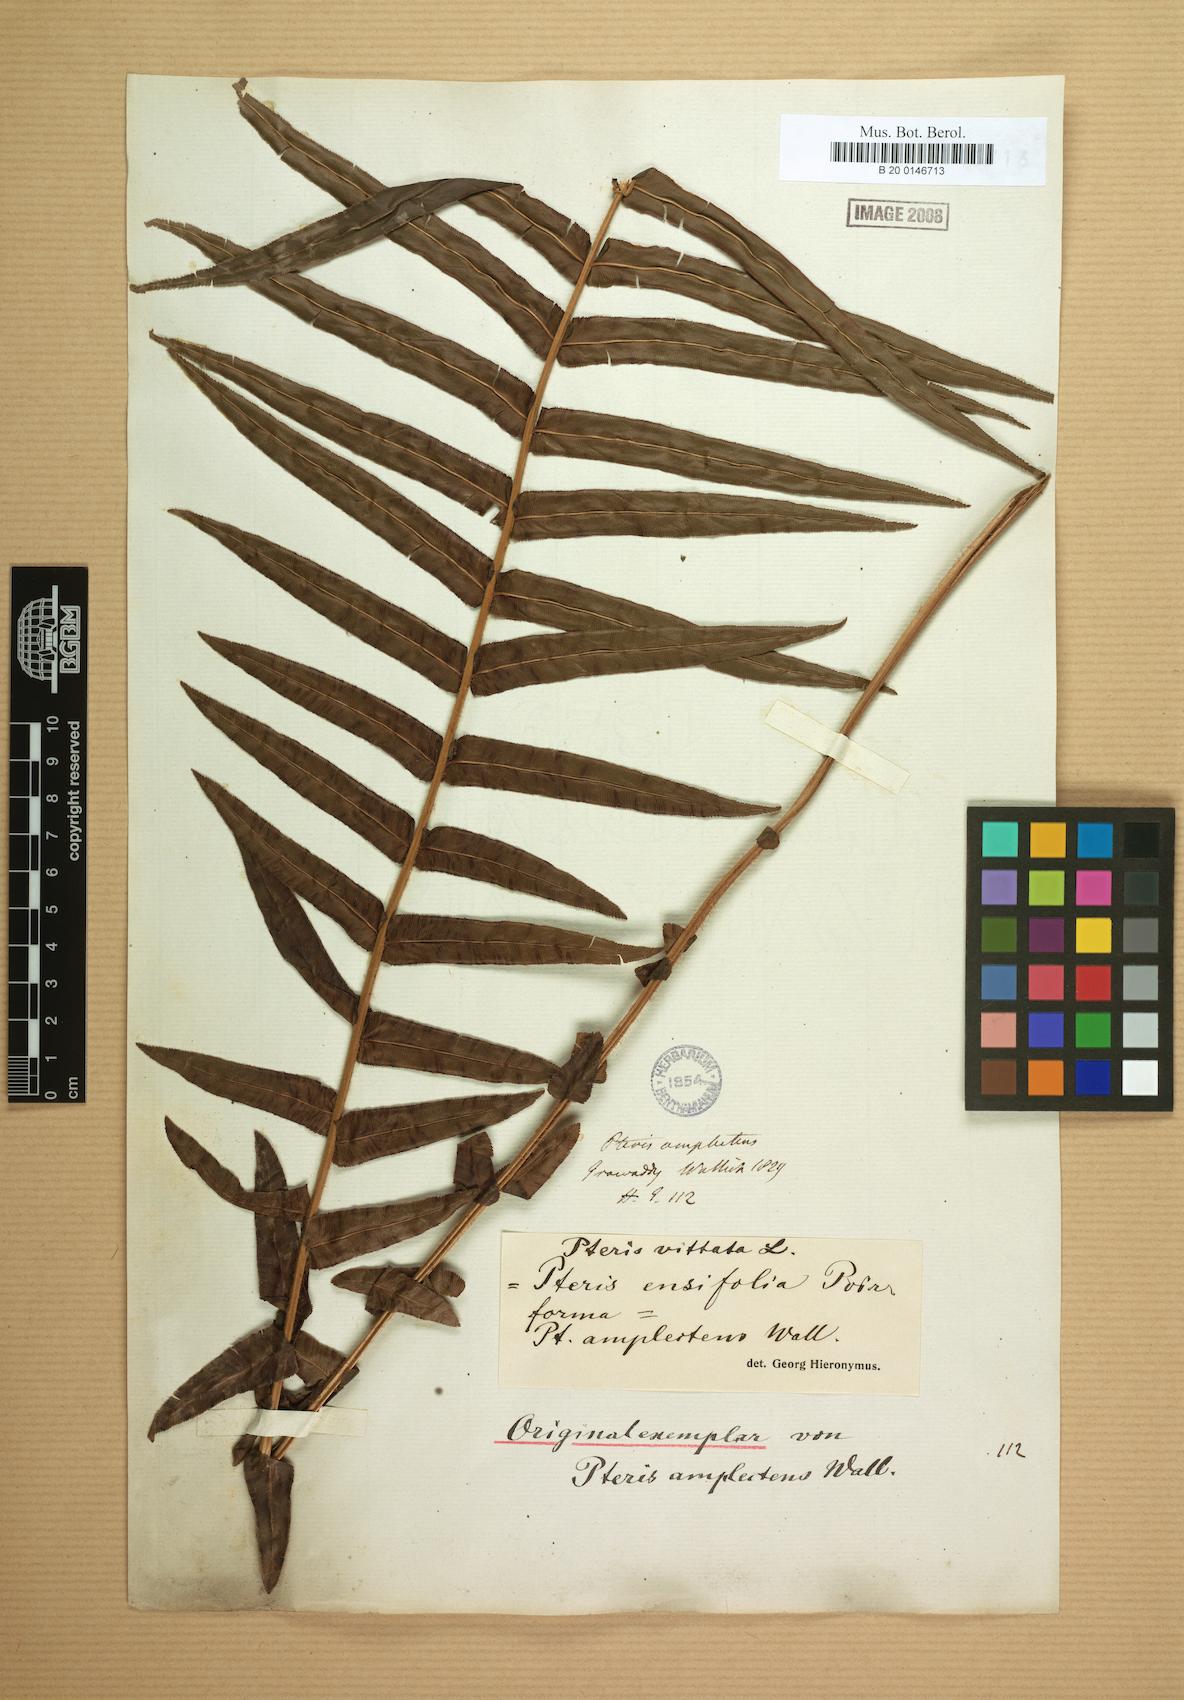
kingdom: Plantae
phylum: Tracheophyta
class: Polypodiopsida
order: Polypodiales
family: Pteridaceae
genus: Pteris
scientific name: Pteris vittata
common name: Ladder brake
